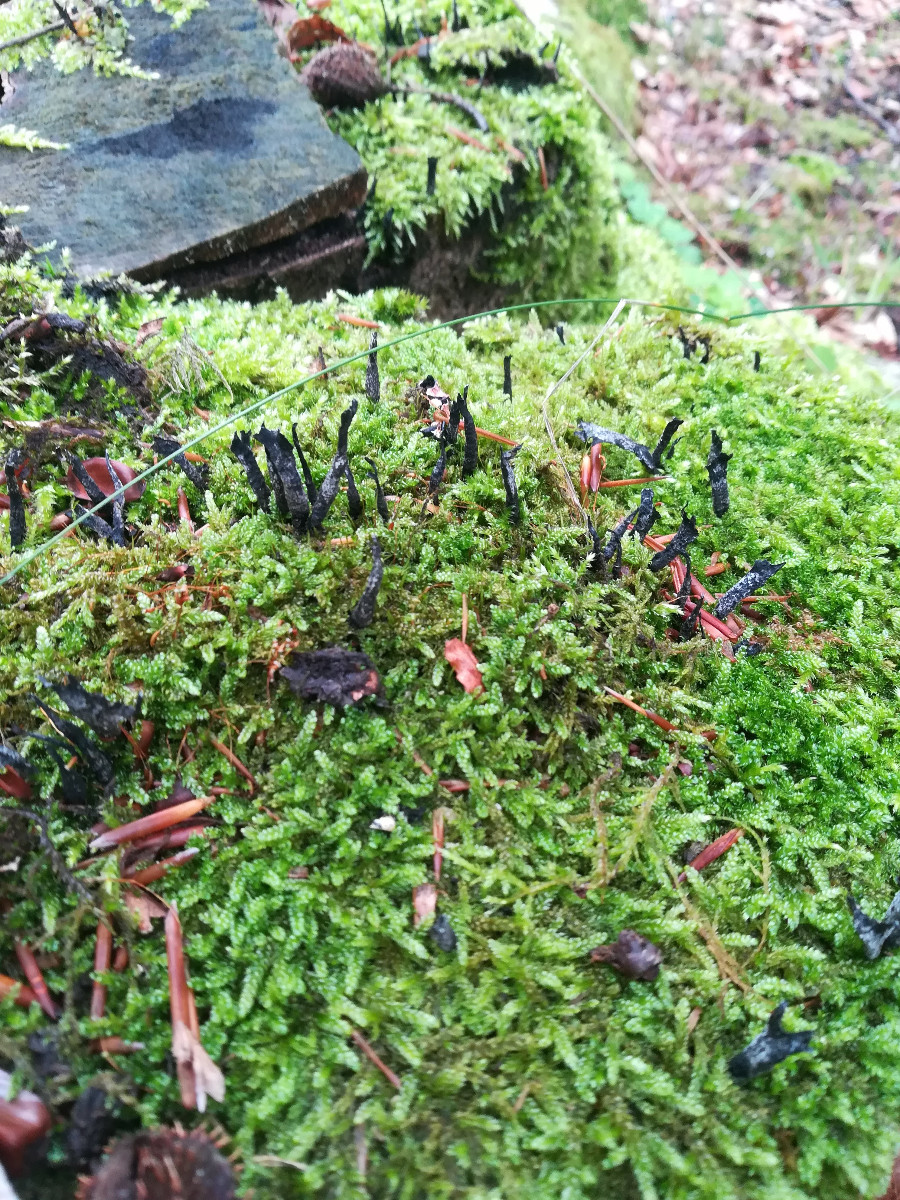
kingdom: Fungi
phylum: Ascomycota
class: Sordariomycetes
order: Xylariales
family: Xylariaceae
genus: Xylaria
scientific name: Xylaria hypoxylon
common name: grenet stødsvamp
